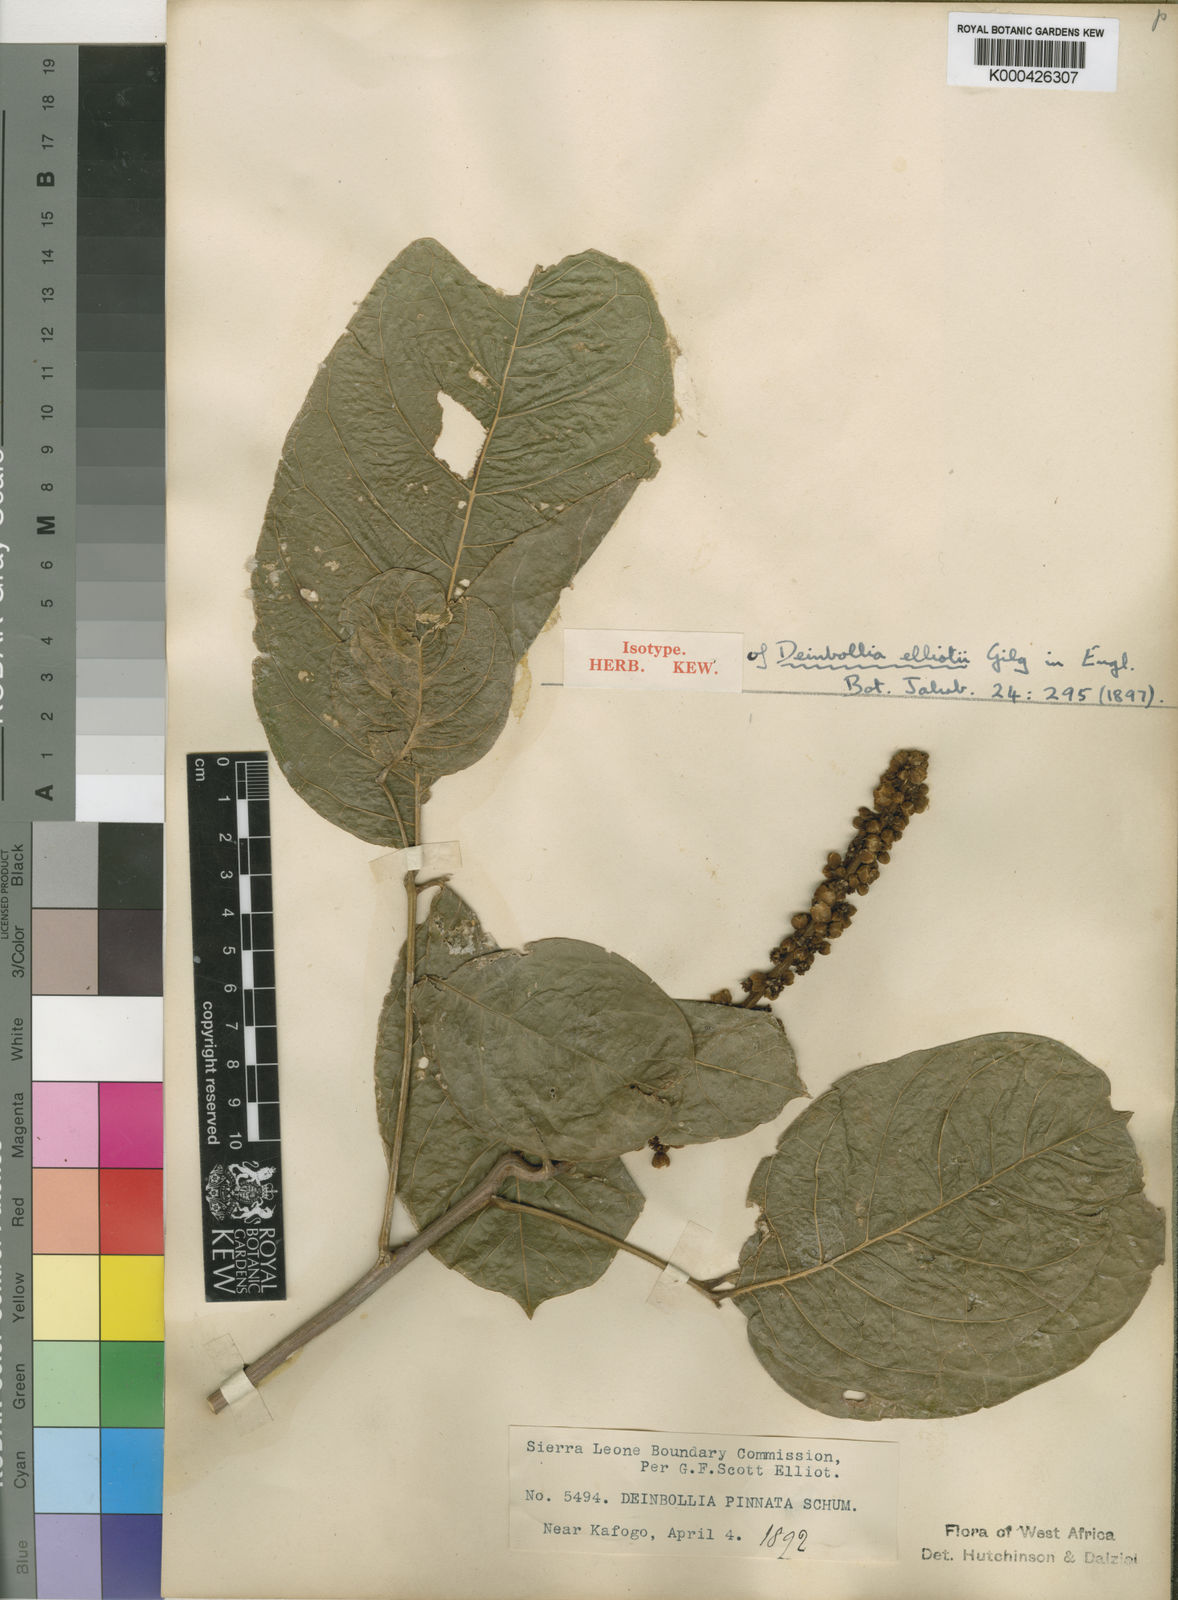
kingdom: Plantae
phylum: Tracheophyta
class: Magnoliopsida
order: Sapindales
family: Sapindaceae
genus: Deinbollia
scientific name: Deinbollia pinnata
